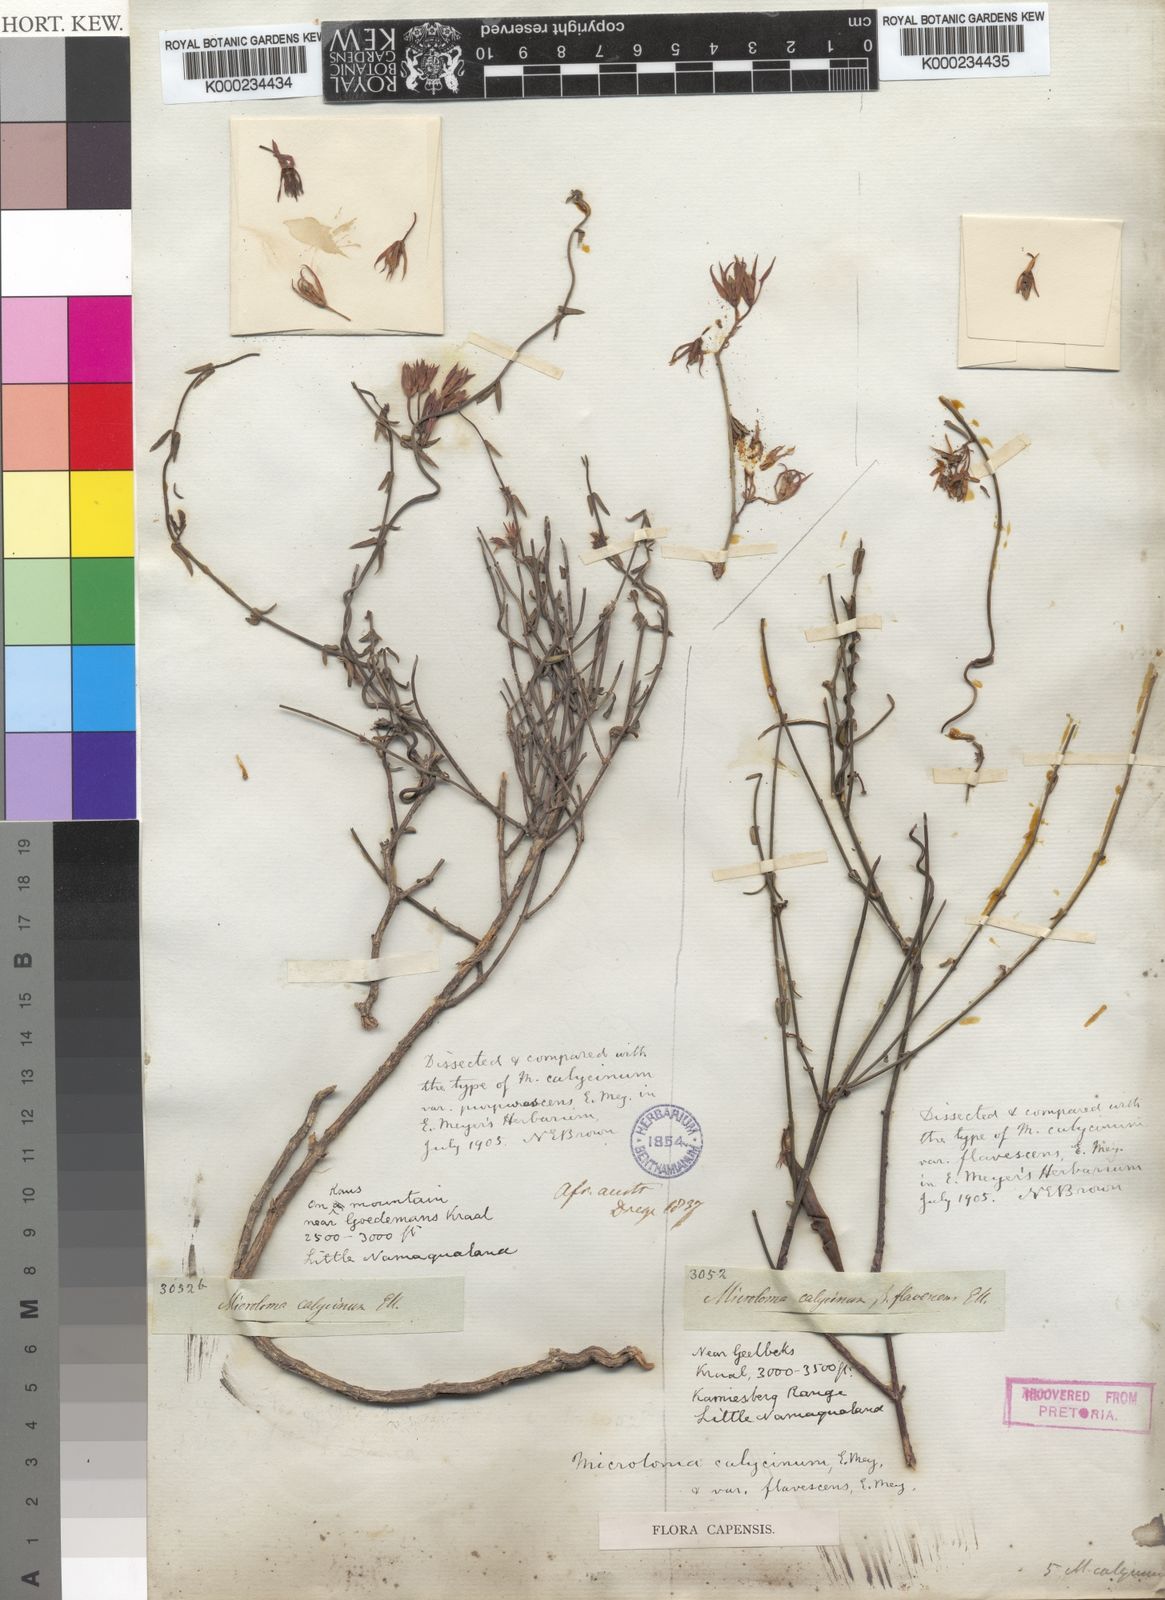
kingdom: Plantae
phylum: Tracheophyta
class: Magnoliopsida
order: Gentianales
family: Apocynaceae
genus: Microloma
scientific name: Microloma calycinum
